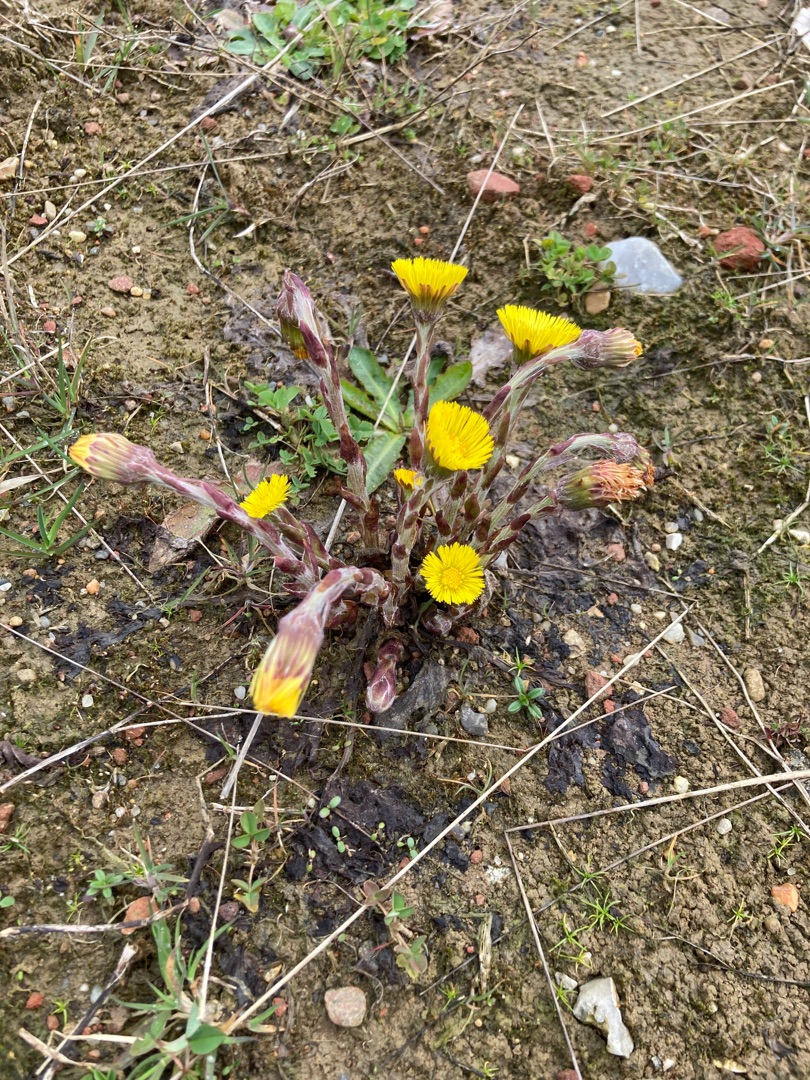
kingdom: Plantae
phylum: Tracheophyta
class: Magnoliopsida
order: Asterales
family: Asteraceae
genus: Tussilago
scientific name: Tussilago farfara
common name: Følfod
